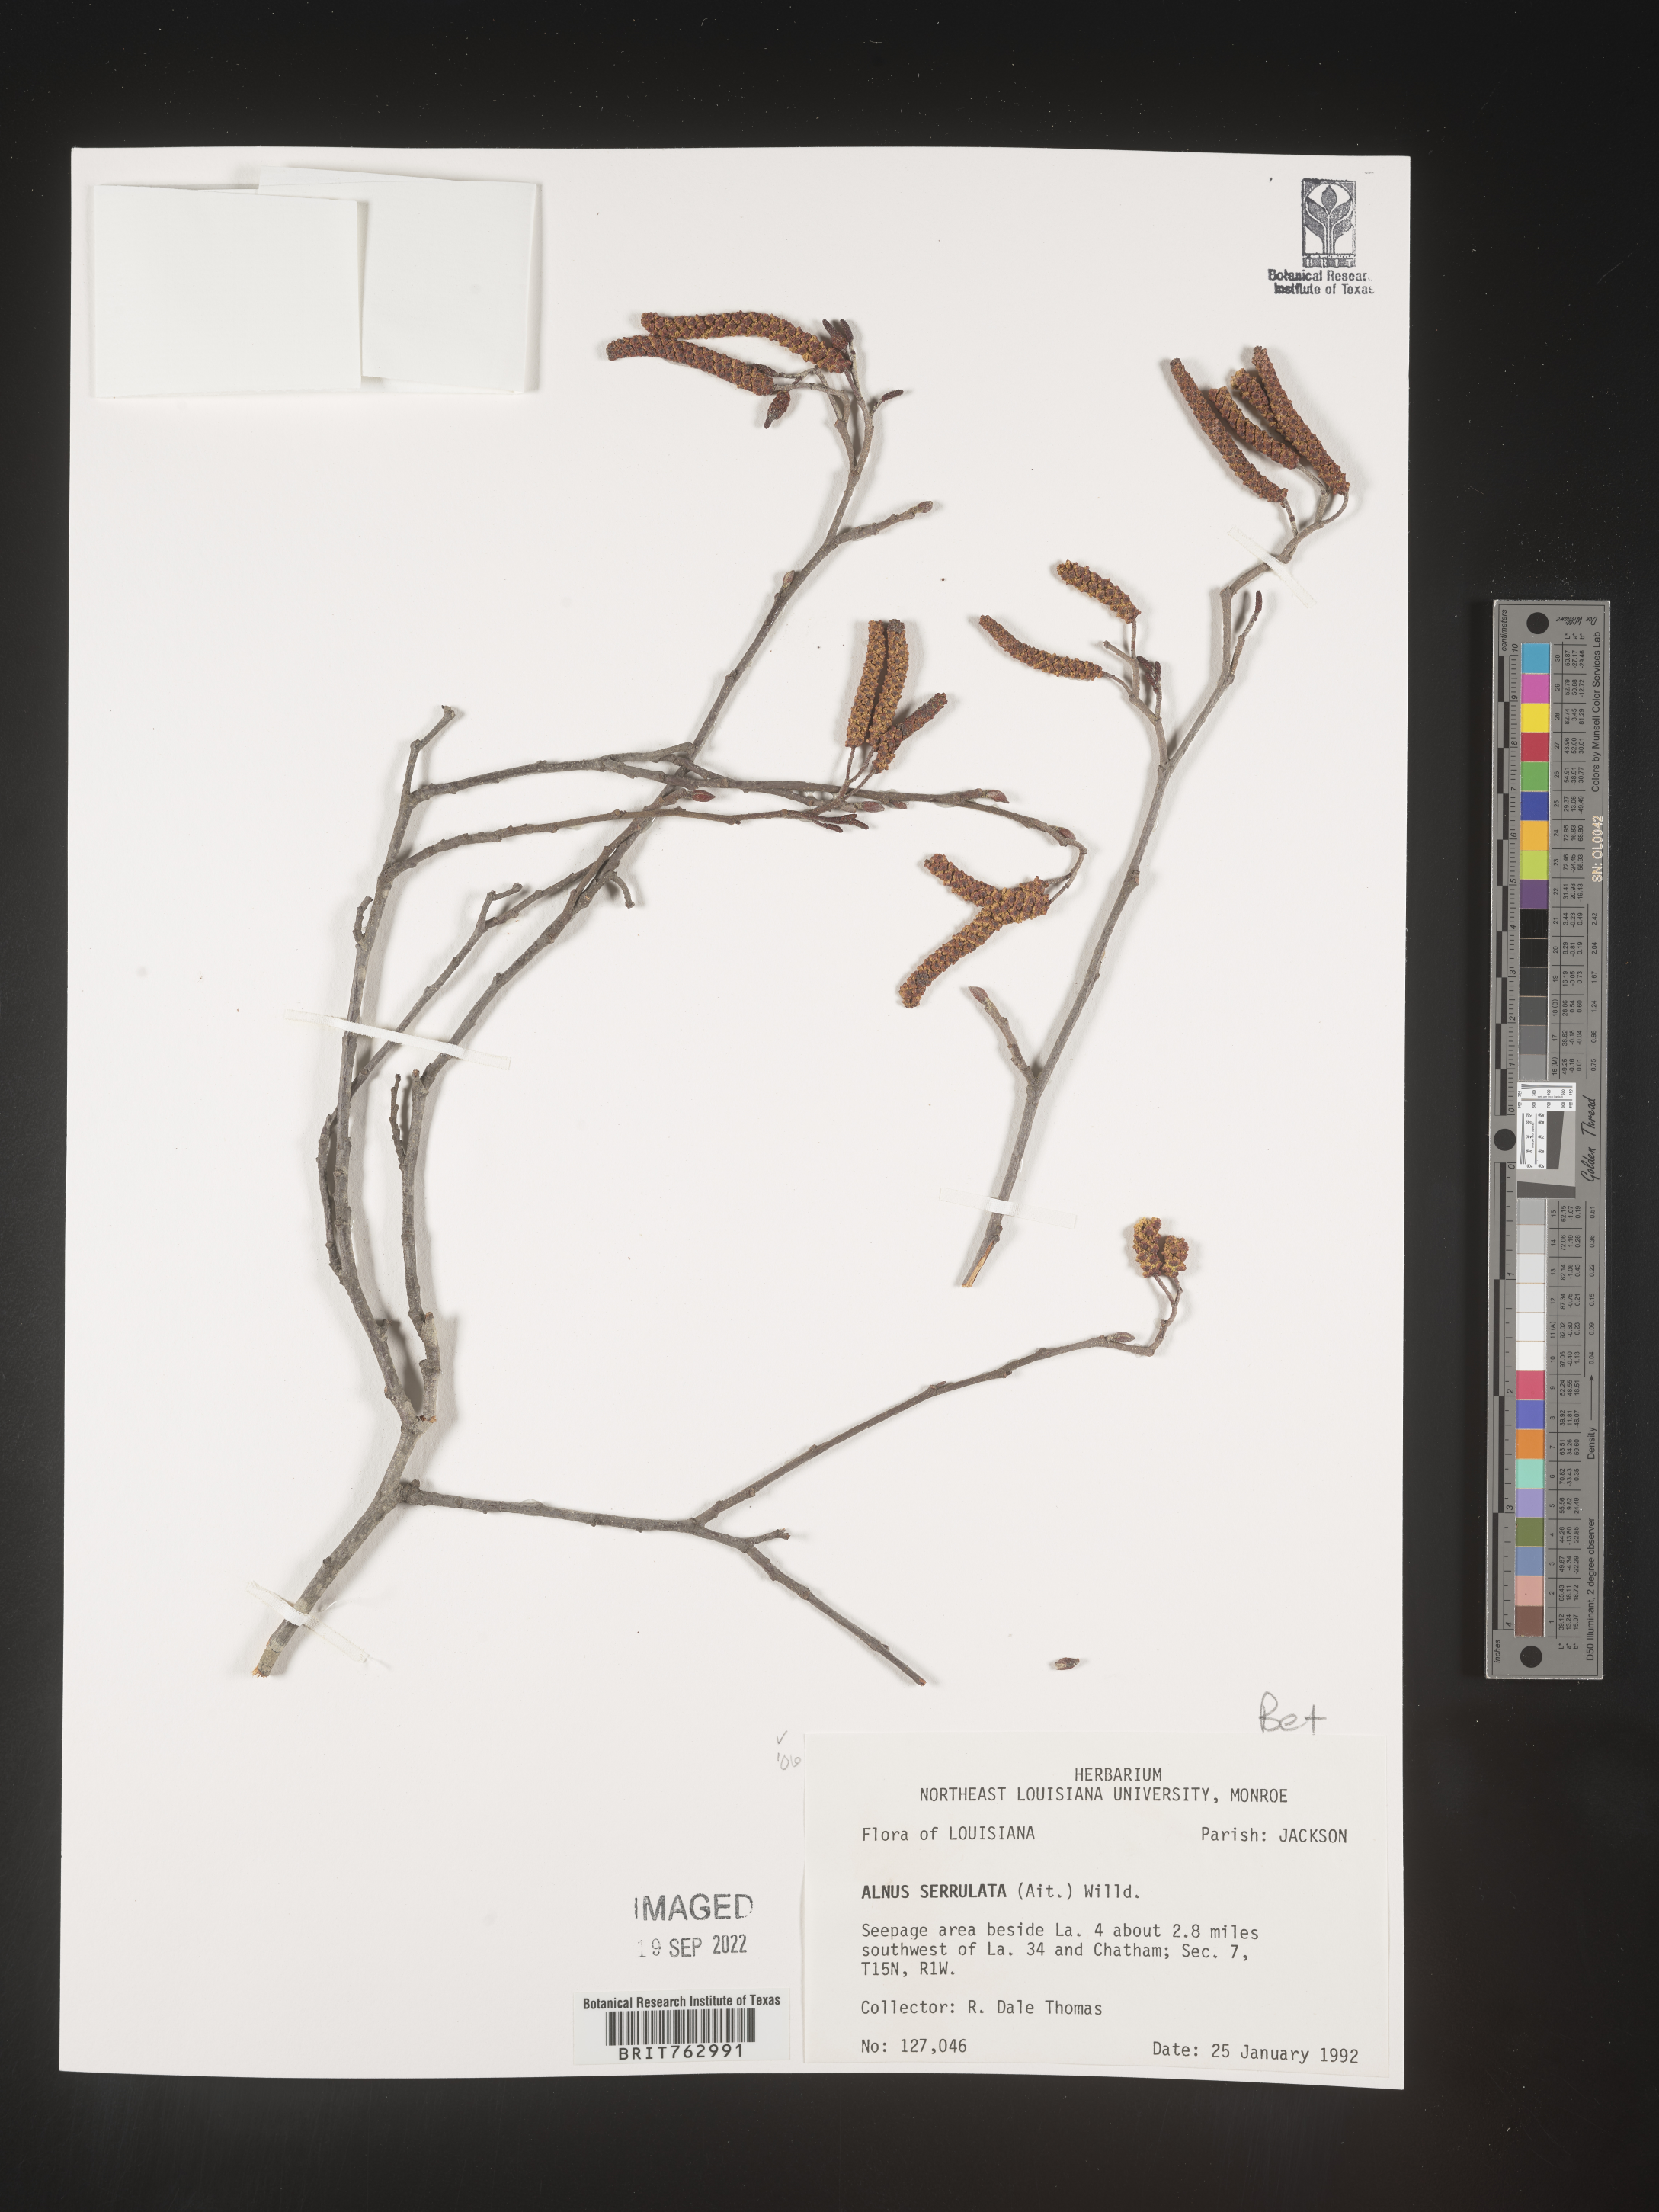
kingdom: Plantae
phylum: Tracheophyta
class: Magnoliopsida
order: Fagales
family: Betulaceae
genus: Alnus
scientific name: Alnus serrulata
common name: Hazel alder
